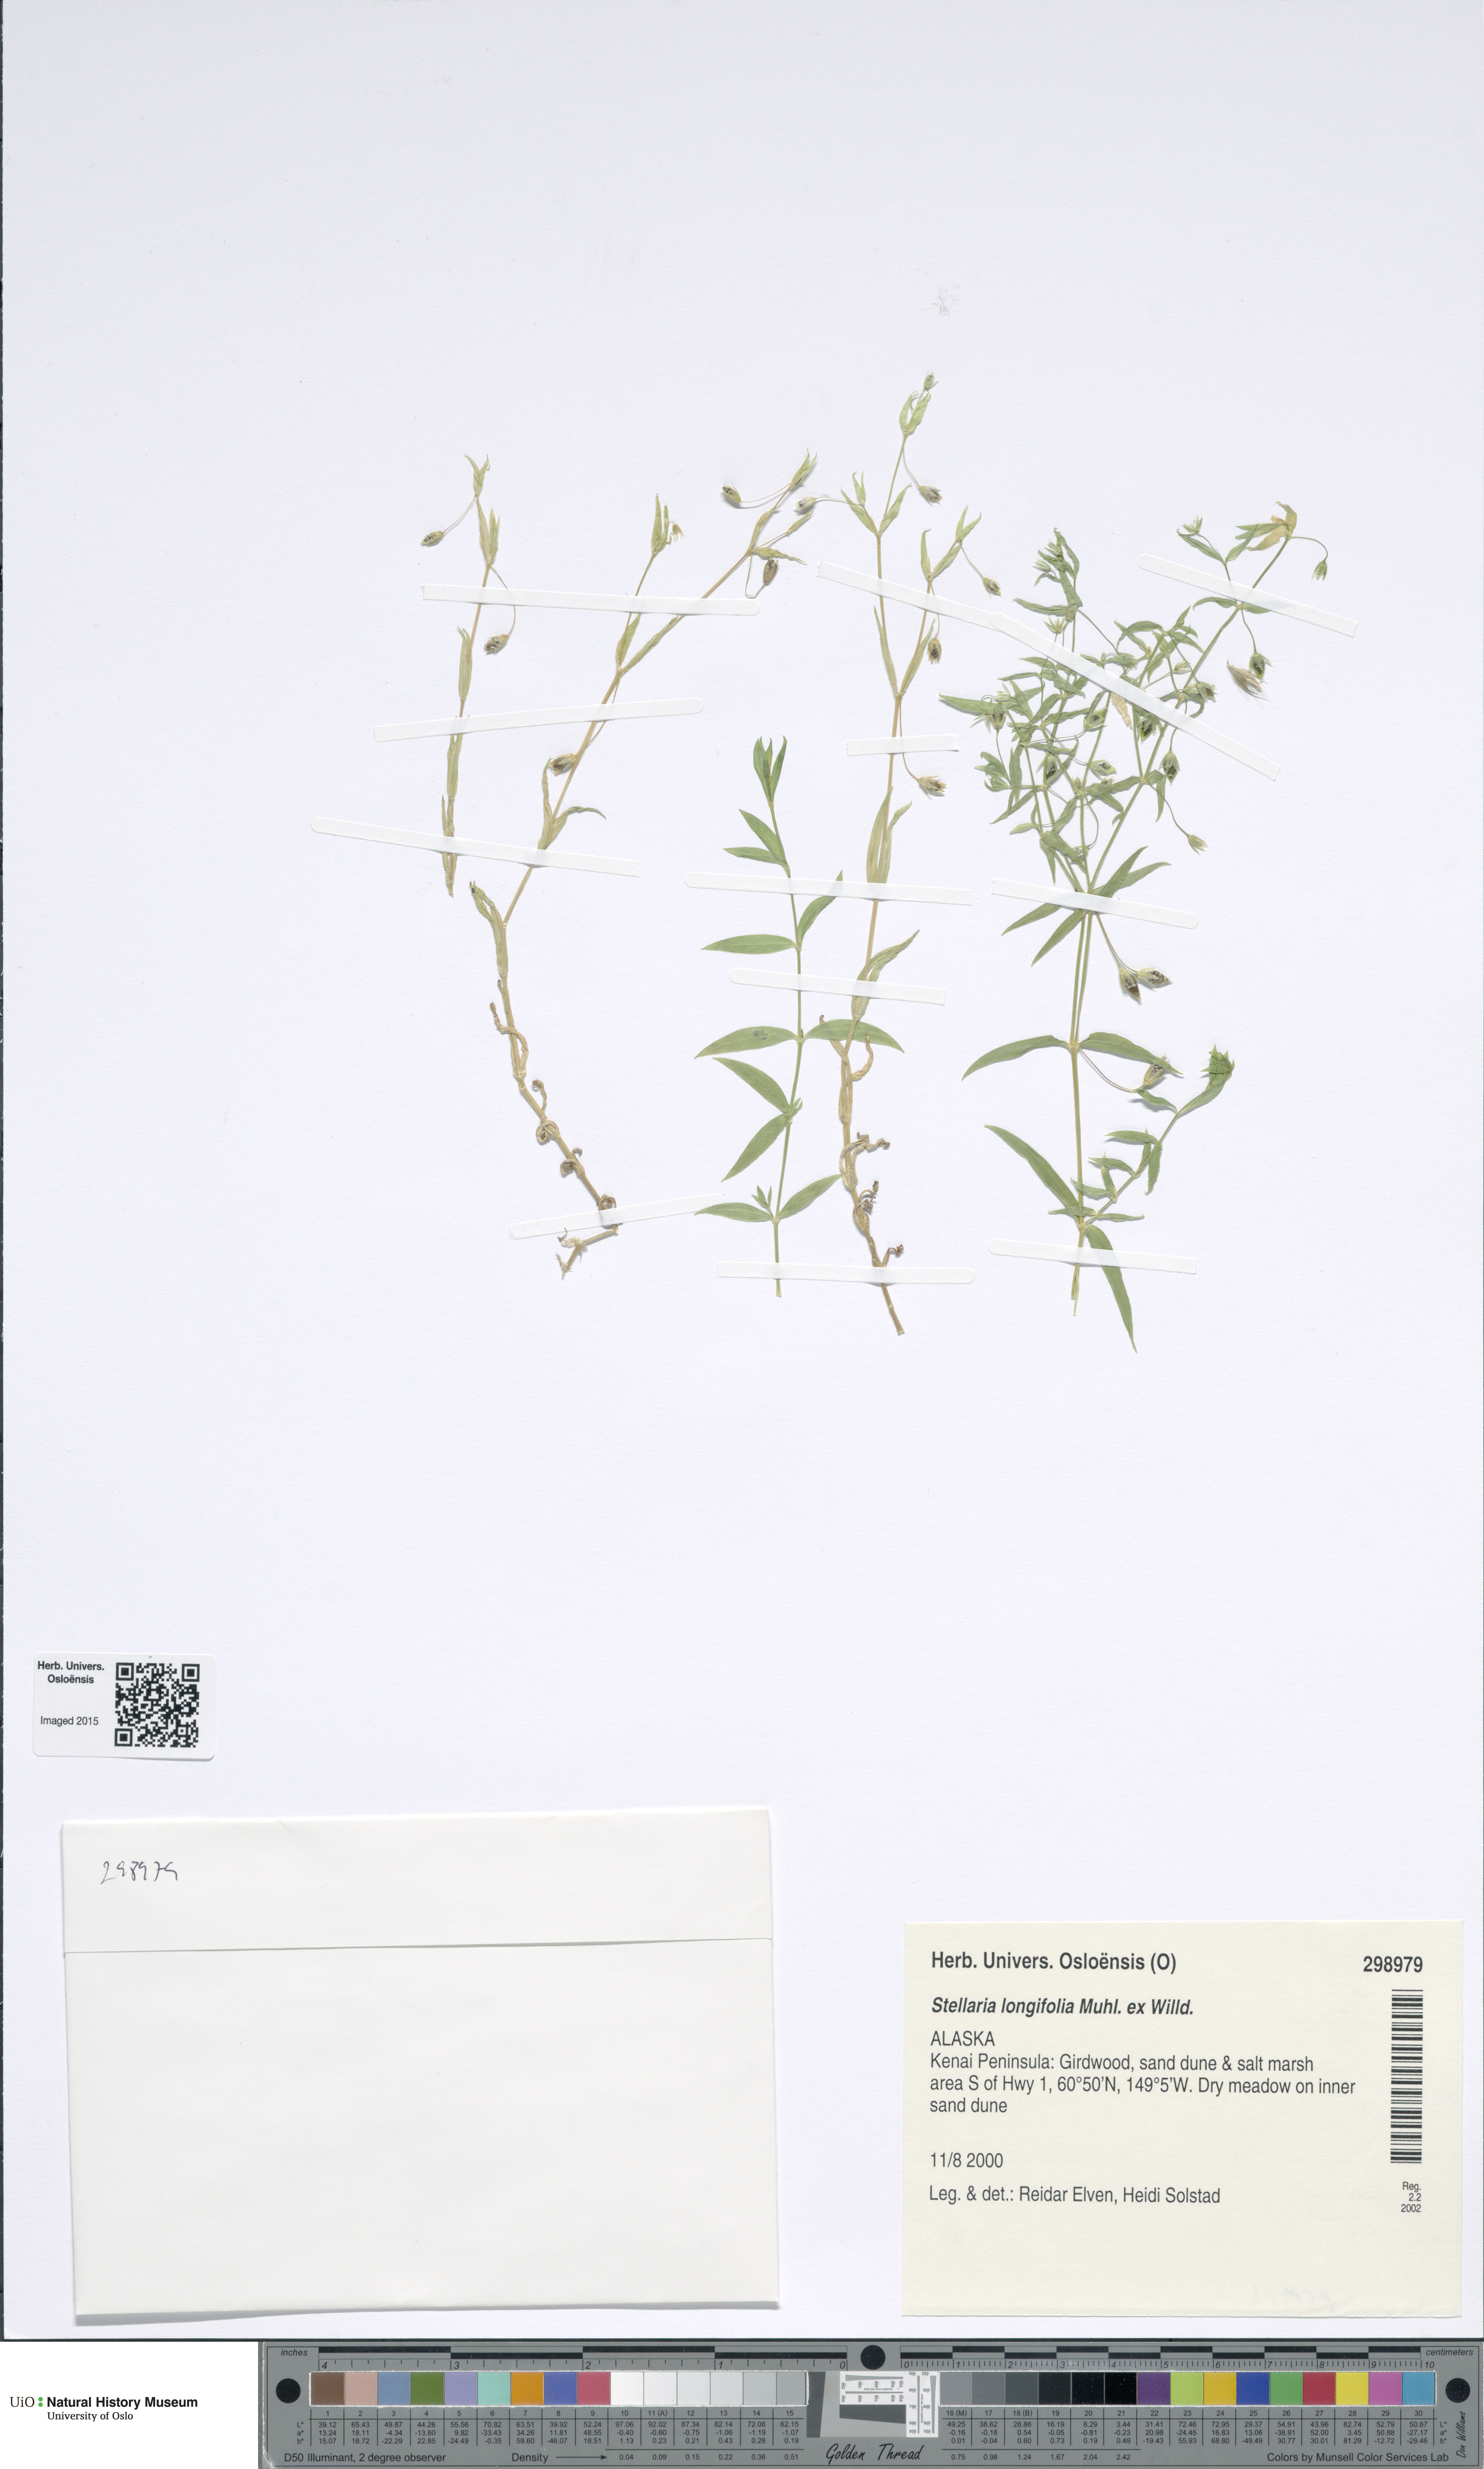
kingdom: Plantae
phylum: Tracheophyta
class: Magnoliopsida
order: Caryophyllales
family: Caryophyllaceae
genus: Stellaria
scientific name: Stellaria longifolia
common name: Long-leaved chickweed
